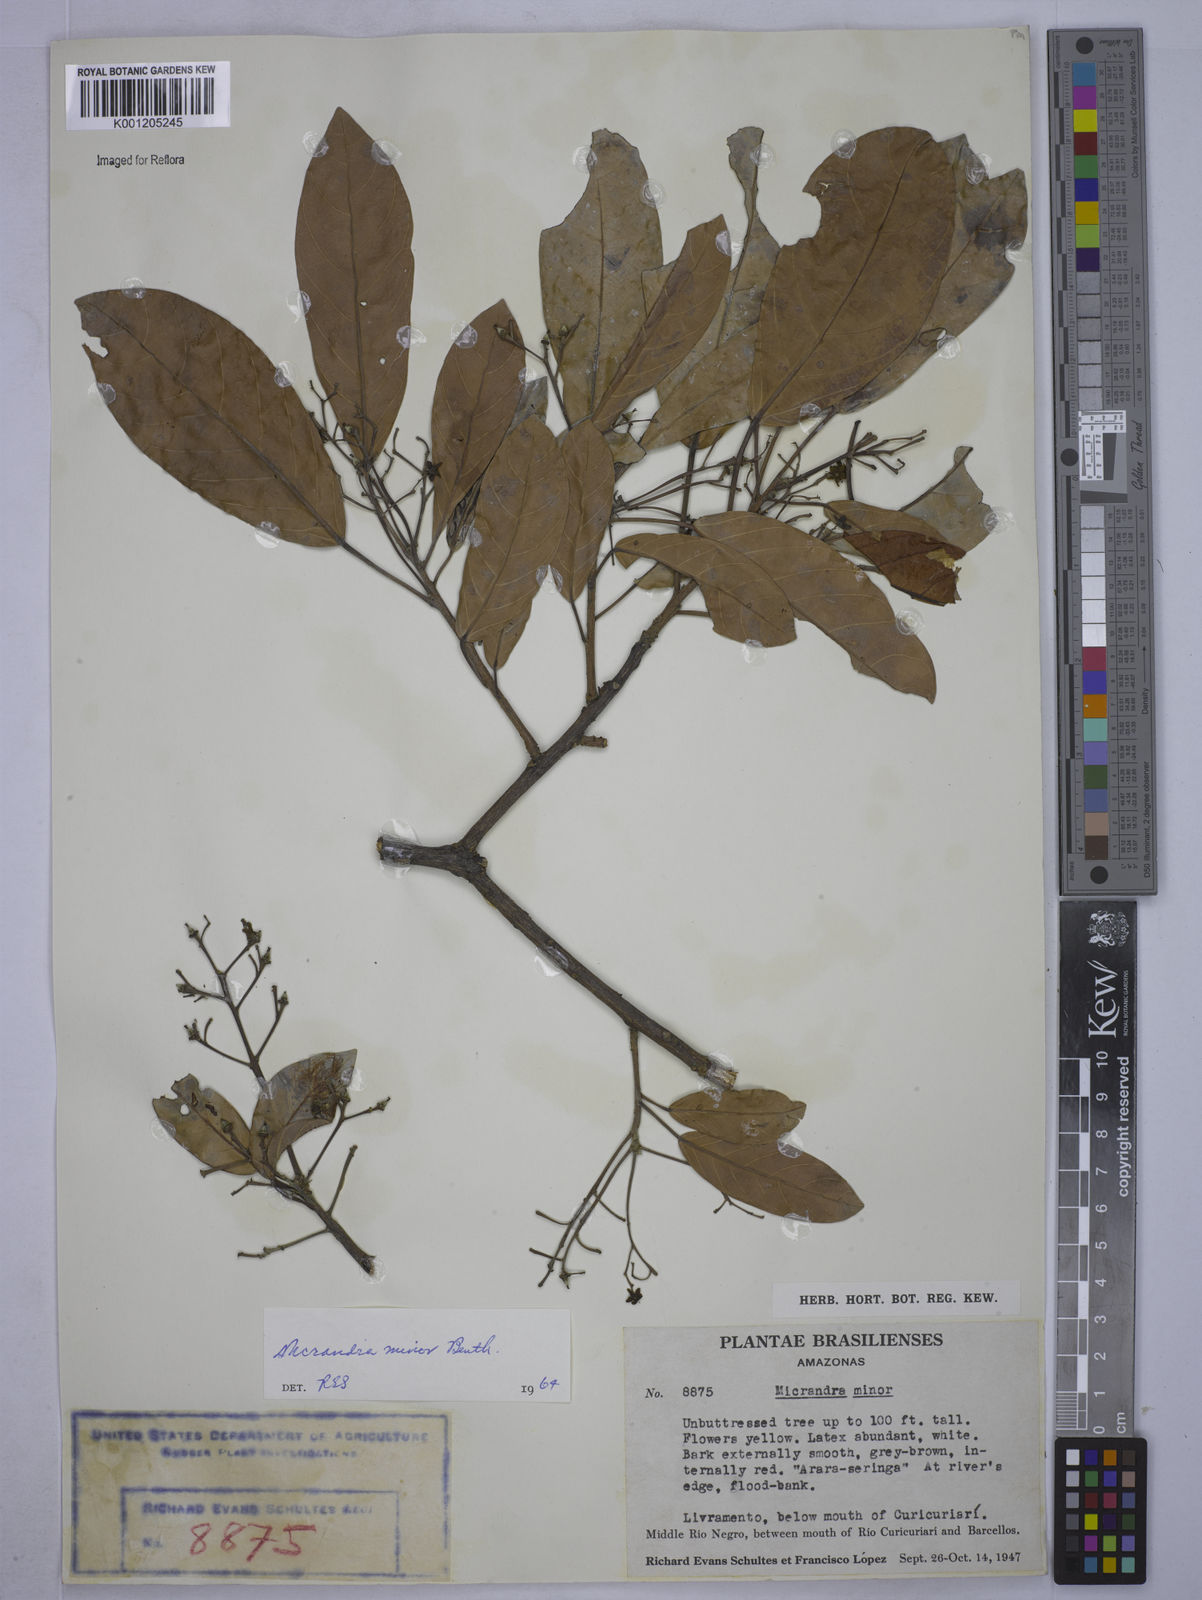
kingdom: Plantae
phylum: Tracheophyta
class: Magnoliopsida
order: Malpighiales
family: Euphorbiaceae
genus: Micrandra
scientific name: Micrandra minor
